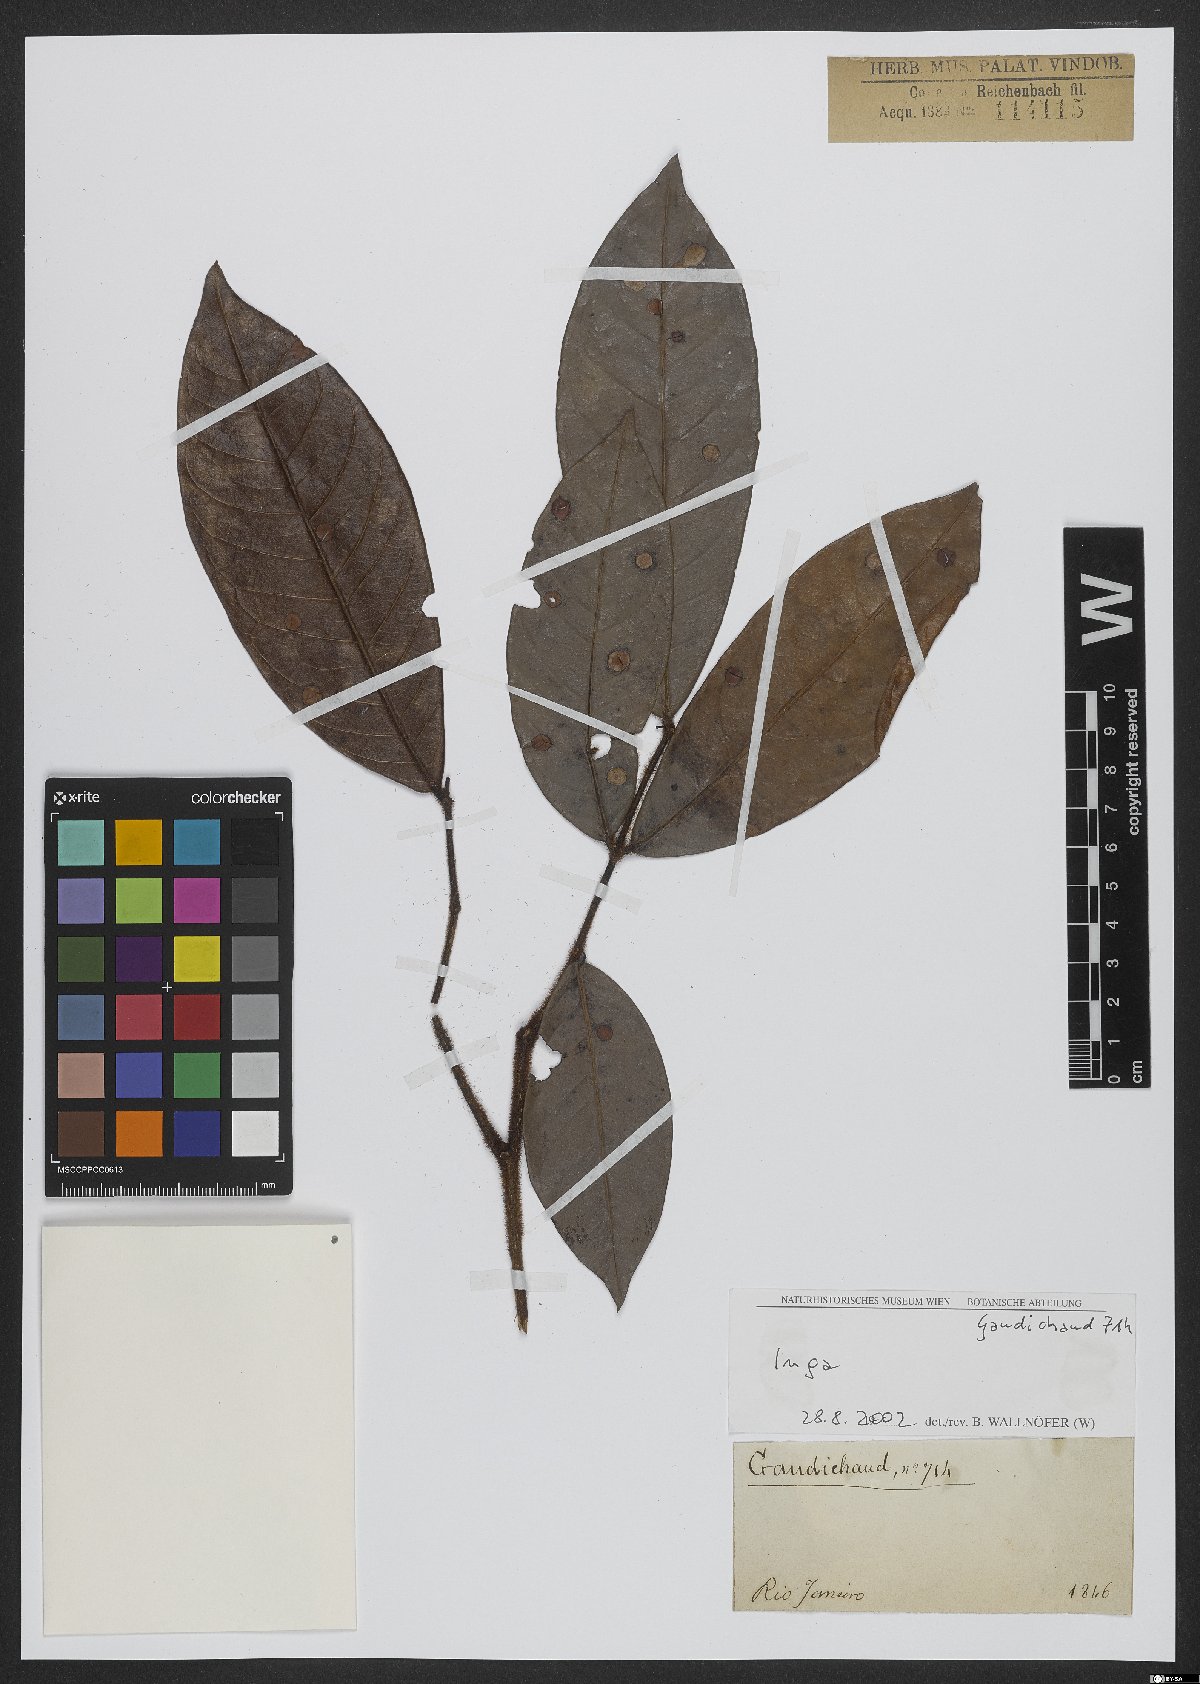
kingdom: Plantae
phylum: Tracheophyta
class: Magnoliopsida
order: Fabales
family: Fabaceae
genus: Inga
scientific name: Inga
